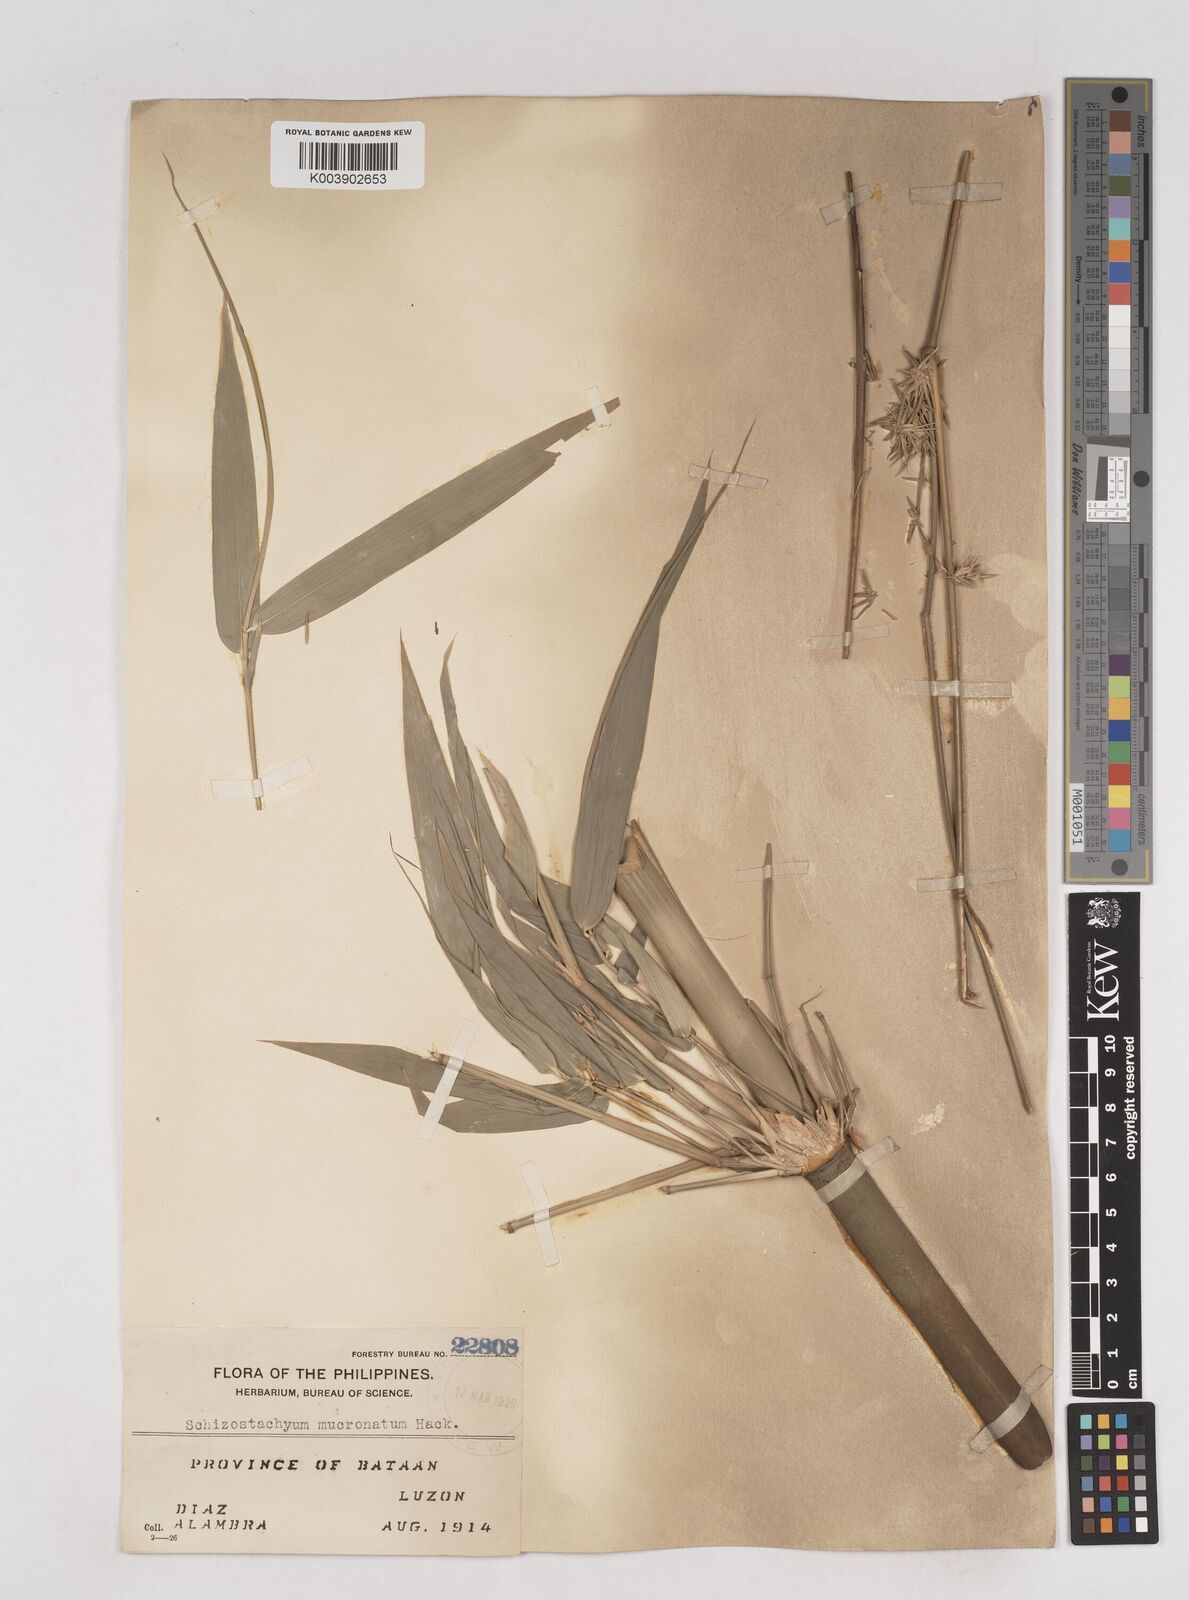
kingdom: Plantae
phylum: Tracheophyta
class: Liliopsida
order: Poales
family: Poaceae
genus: Schizostachyum
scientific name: Schizostachyum lumampao
